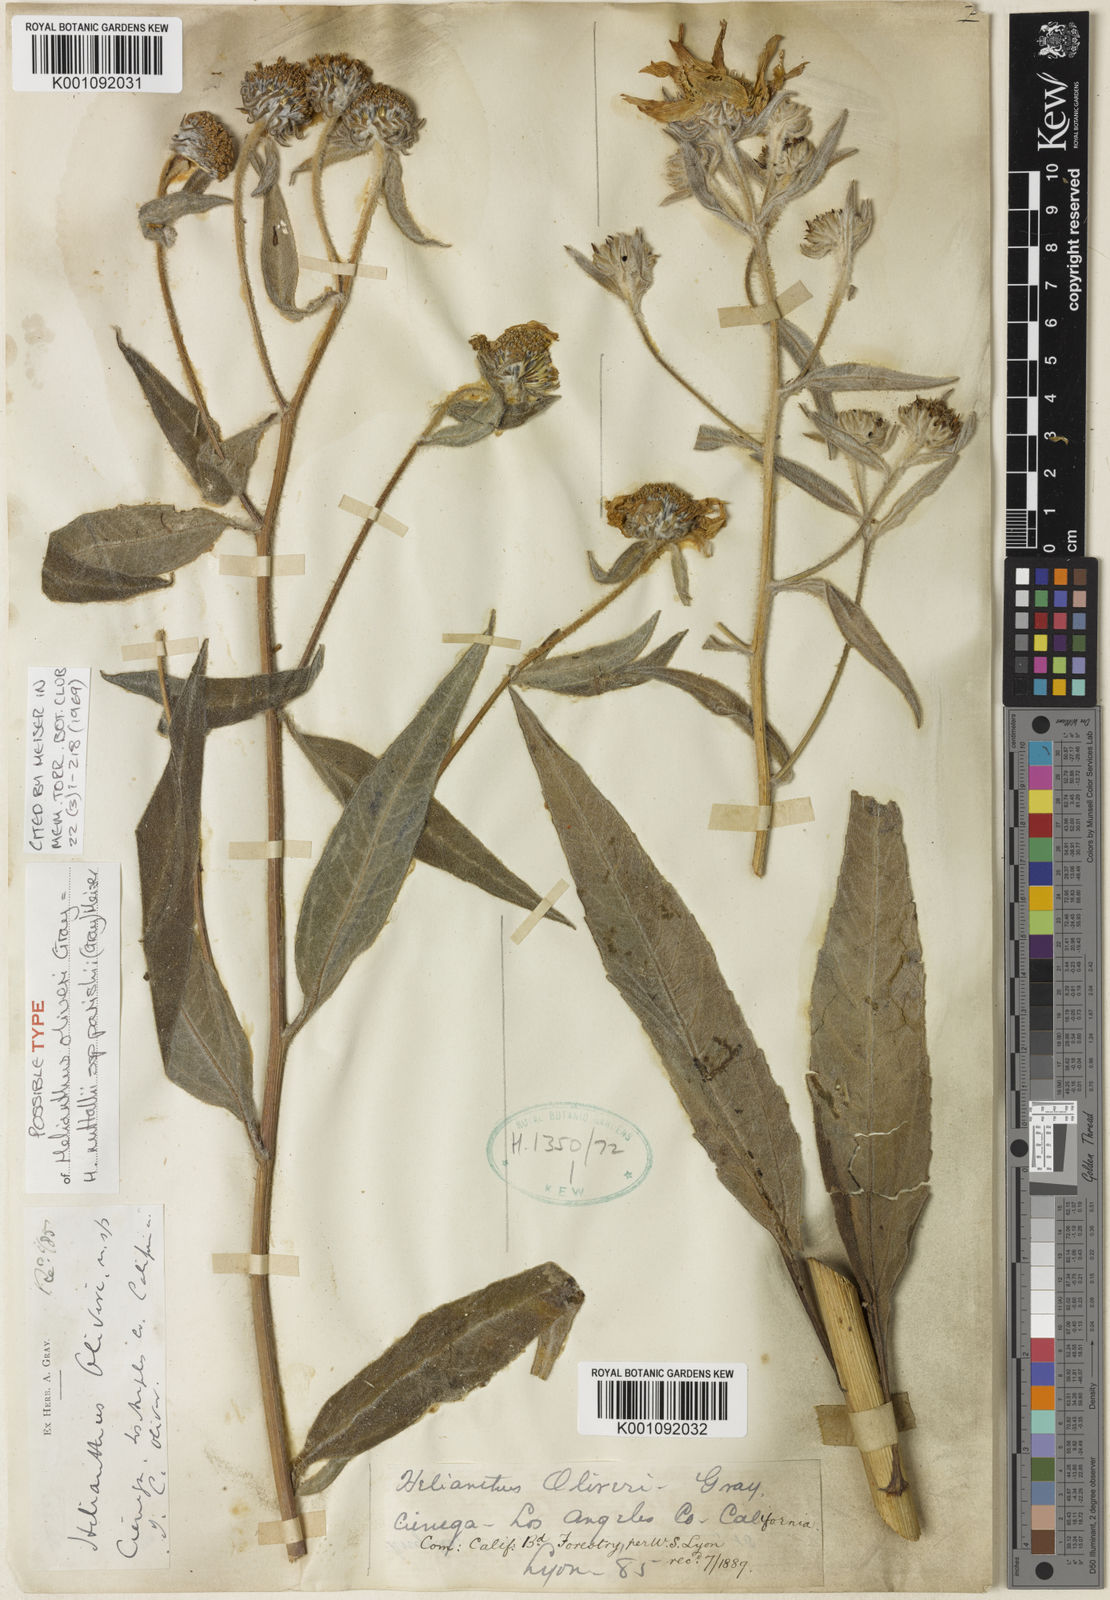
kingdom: Plantae
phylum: Tracheophyta
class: Magnoliopsida
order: Asterales
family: Asteraceae
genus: Helianthus
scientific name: Helianthus maximiliani
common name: Maximilian's sunflower
